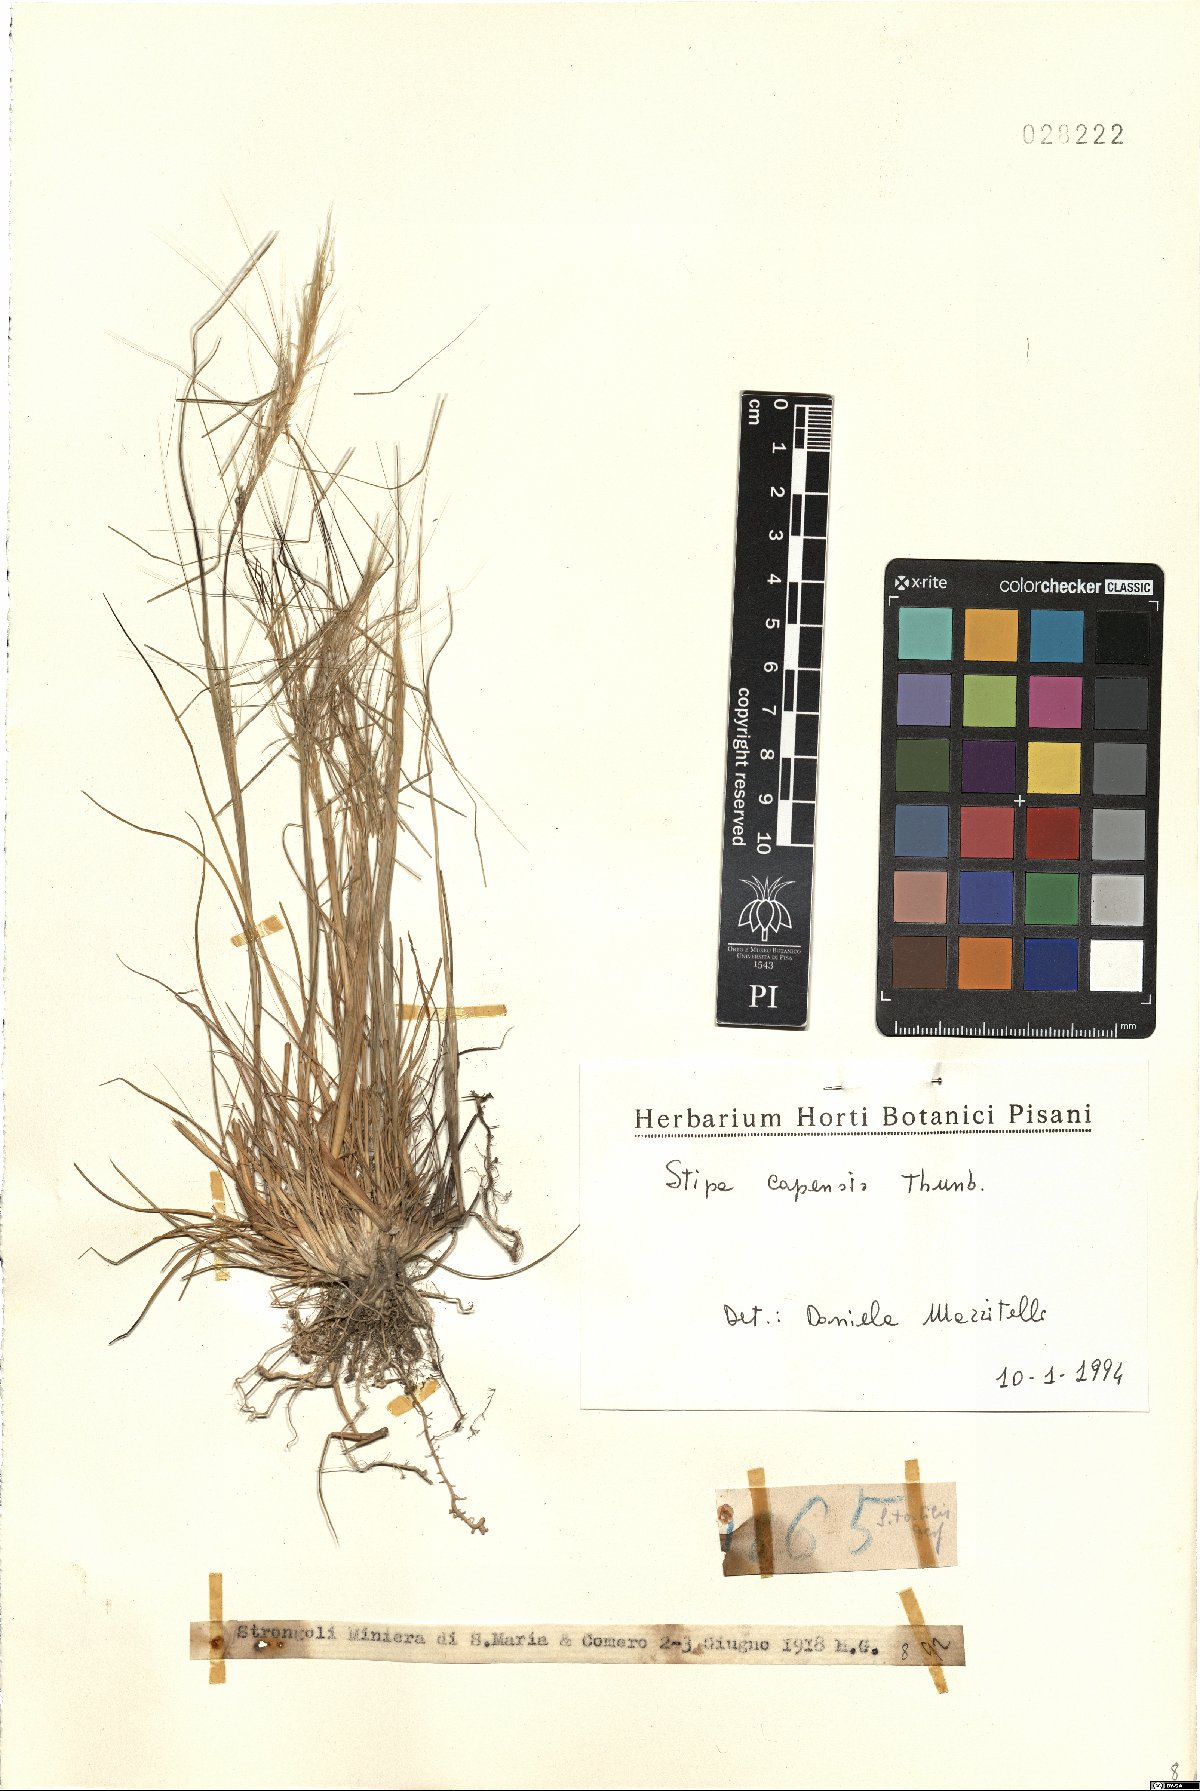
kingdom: Plantae
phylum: Tracheophyta
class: Liliopsida
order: Poales
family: Poaceae
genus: Stipellula
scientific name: Stipellula capensis
